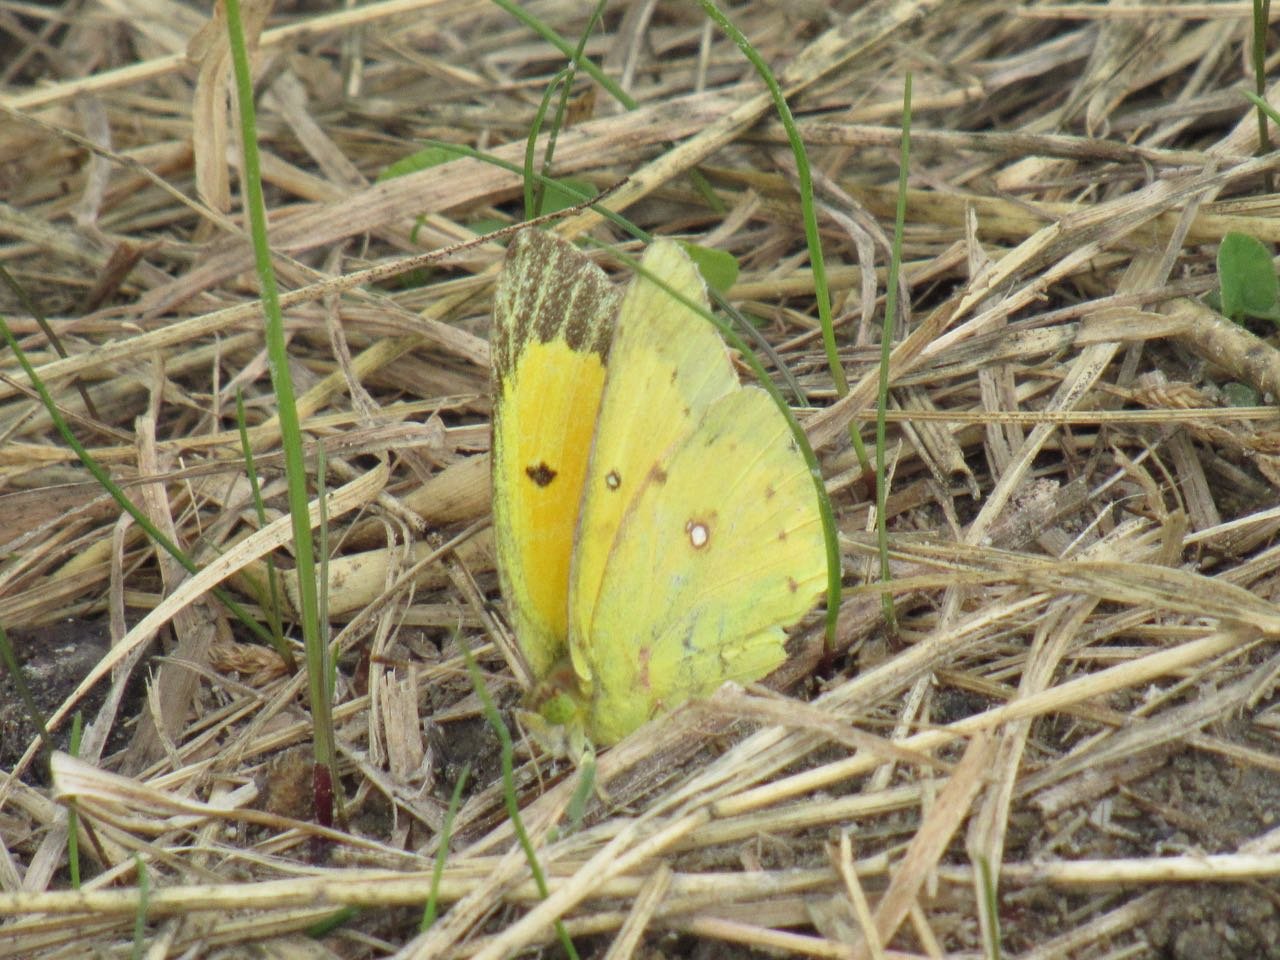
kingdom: Animalia
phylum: Arthropoda
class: Insecta
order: Lepidoptera
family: Pieridae
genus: Colias
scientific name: Colias eurytheme
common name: Orange Sulphur
